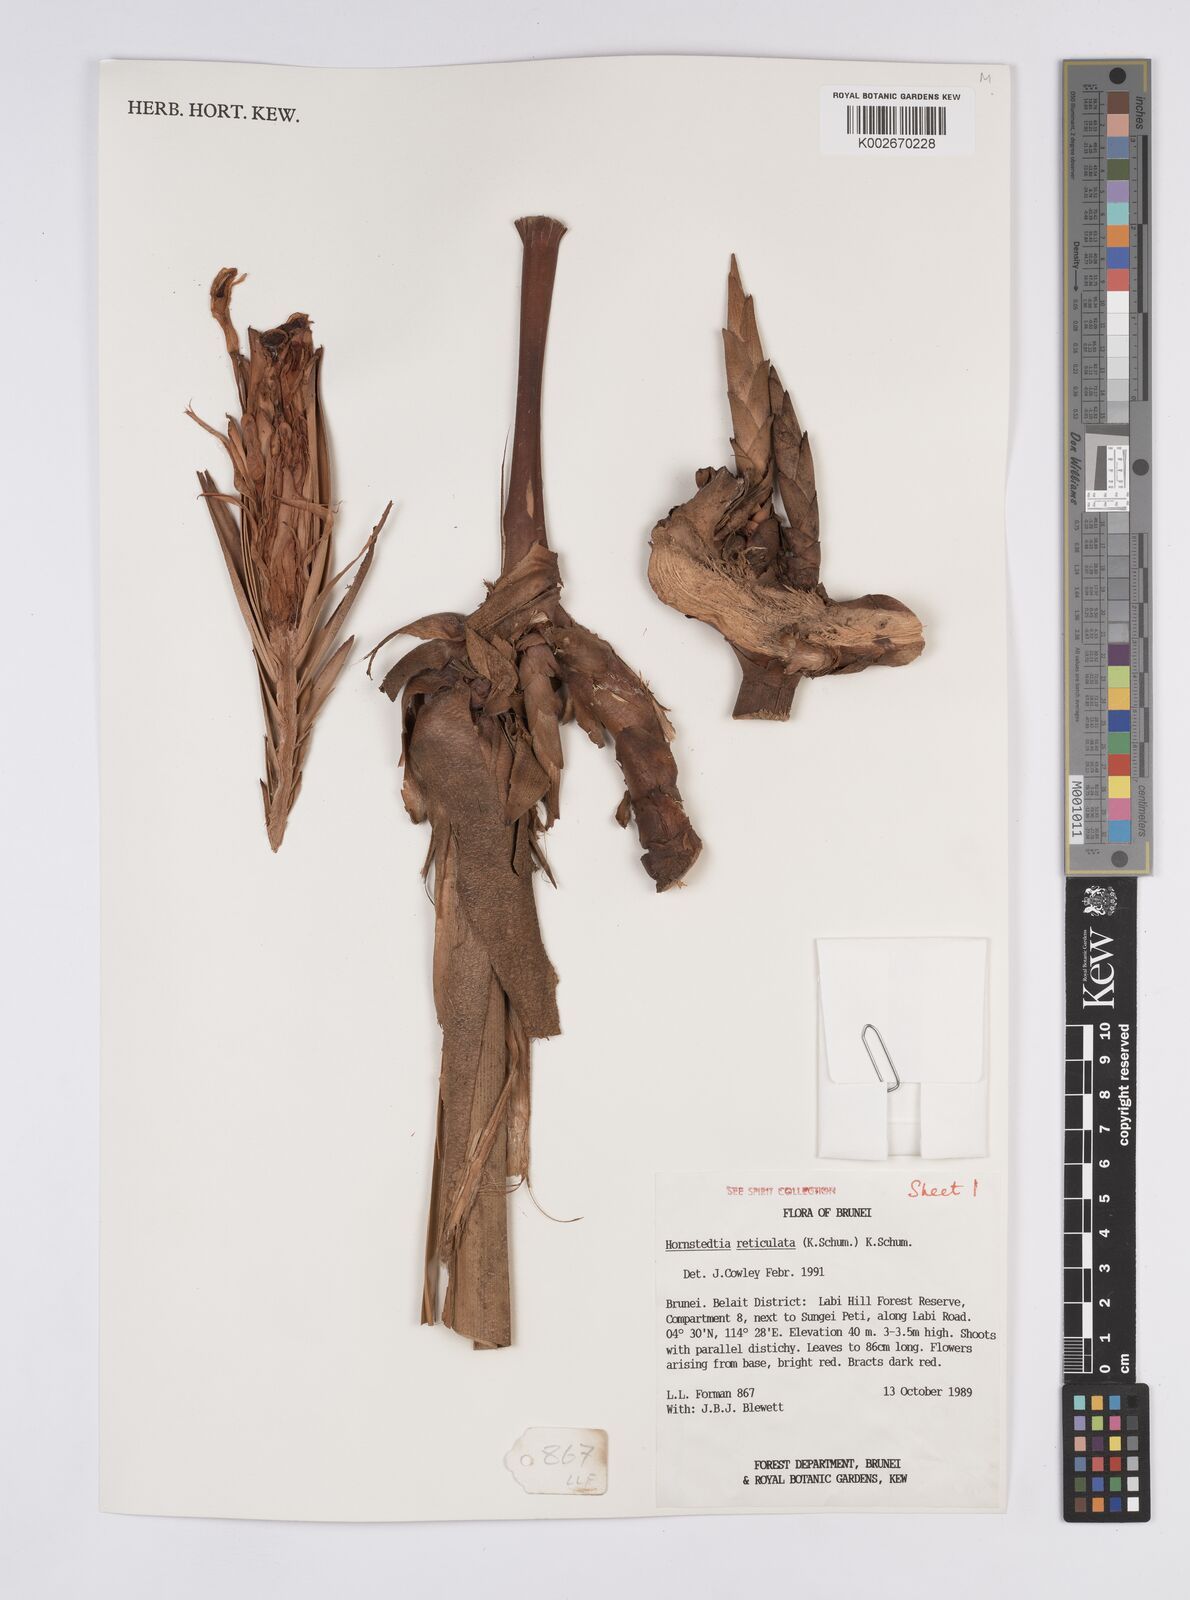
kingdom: Plantae
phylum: Tracheophyta
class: Liliopsida
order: Zingiberales
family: Zingiberaceae
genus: Hornstedtia
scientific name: Hornstedtia reticulata
